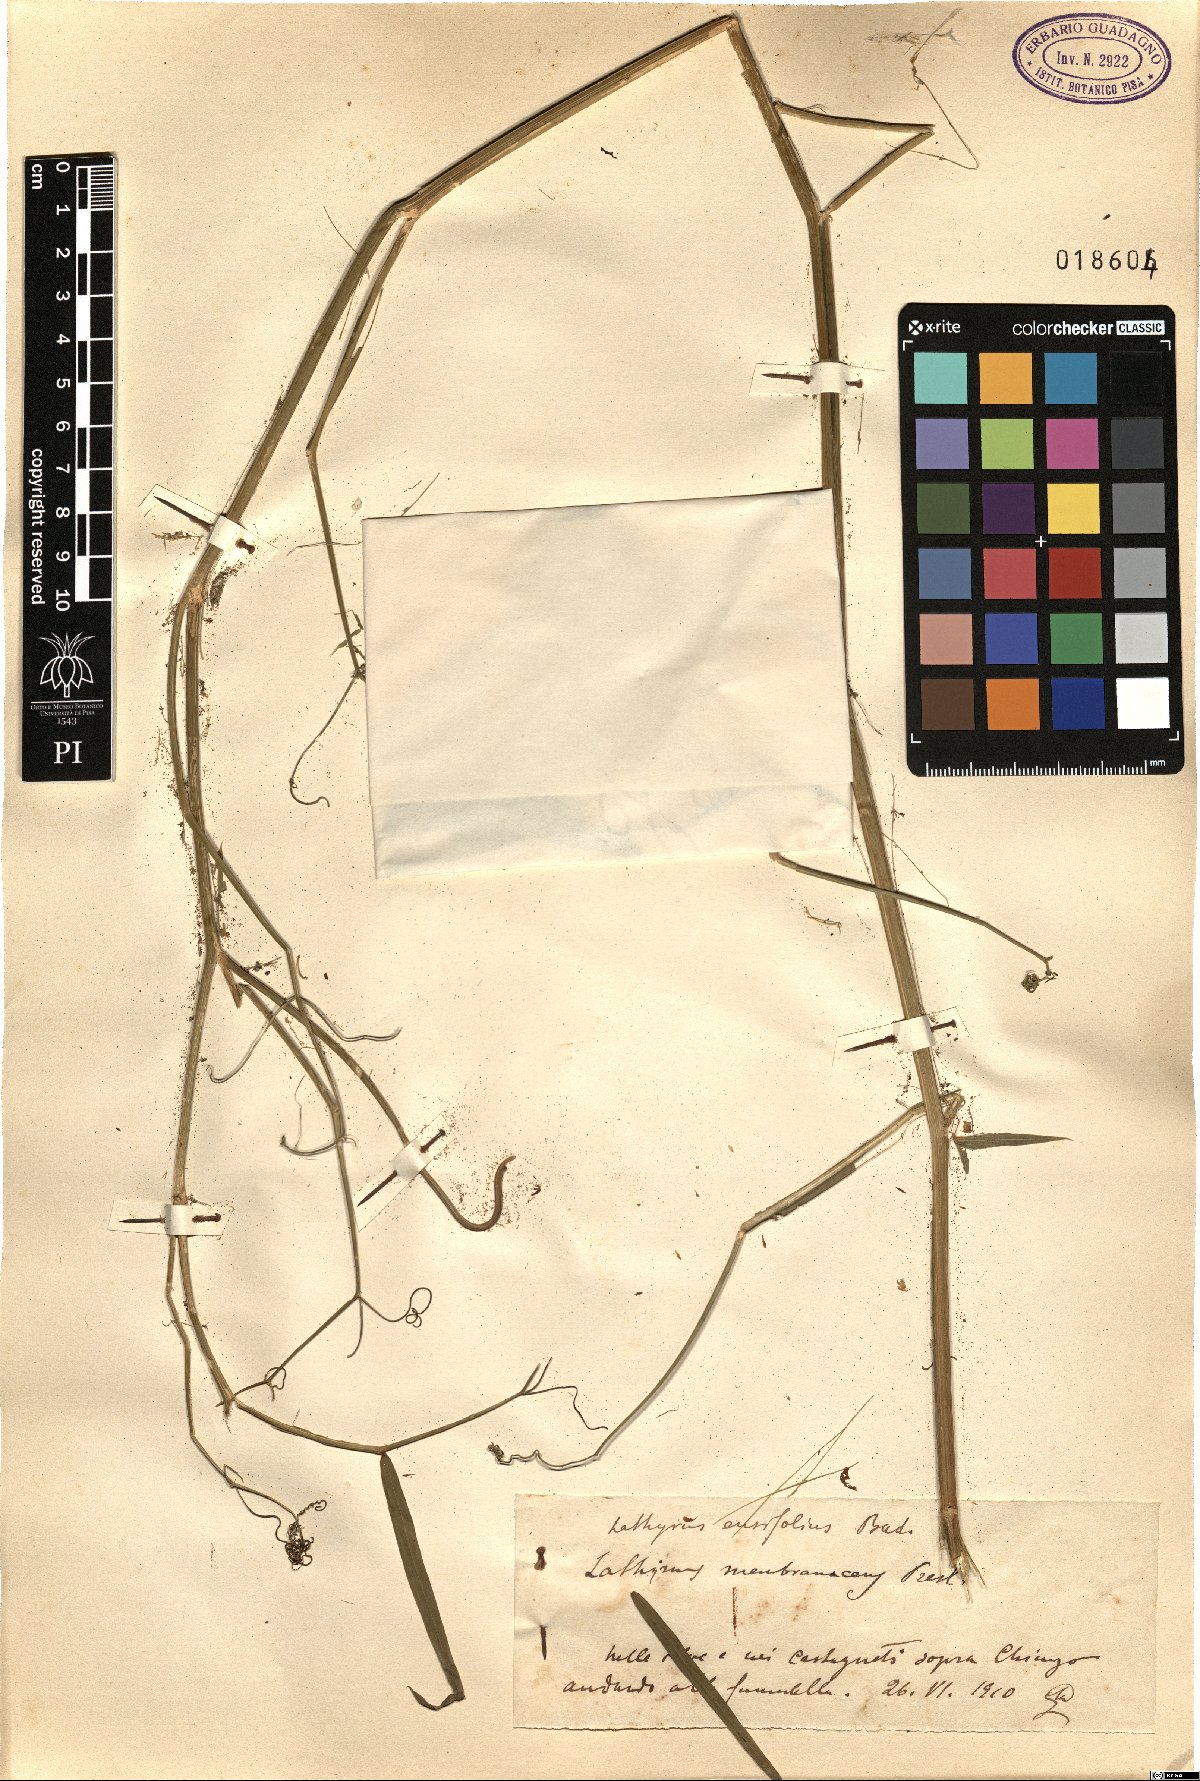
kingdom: Plantae
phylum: Tracheophyta
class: Magnoliopsida
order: Fabales
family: Fabaceae
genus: Lathyrus
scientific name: Lathyrus bauhini
